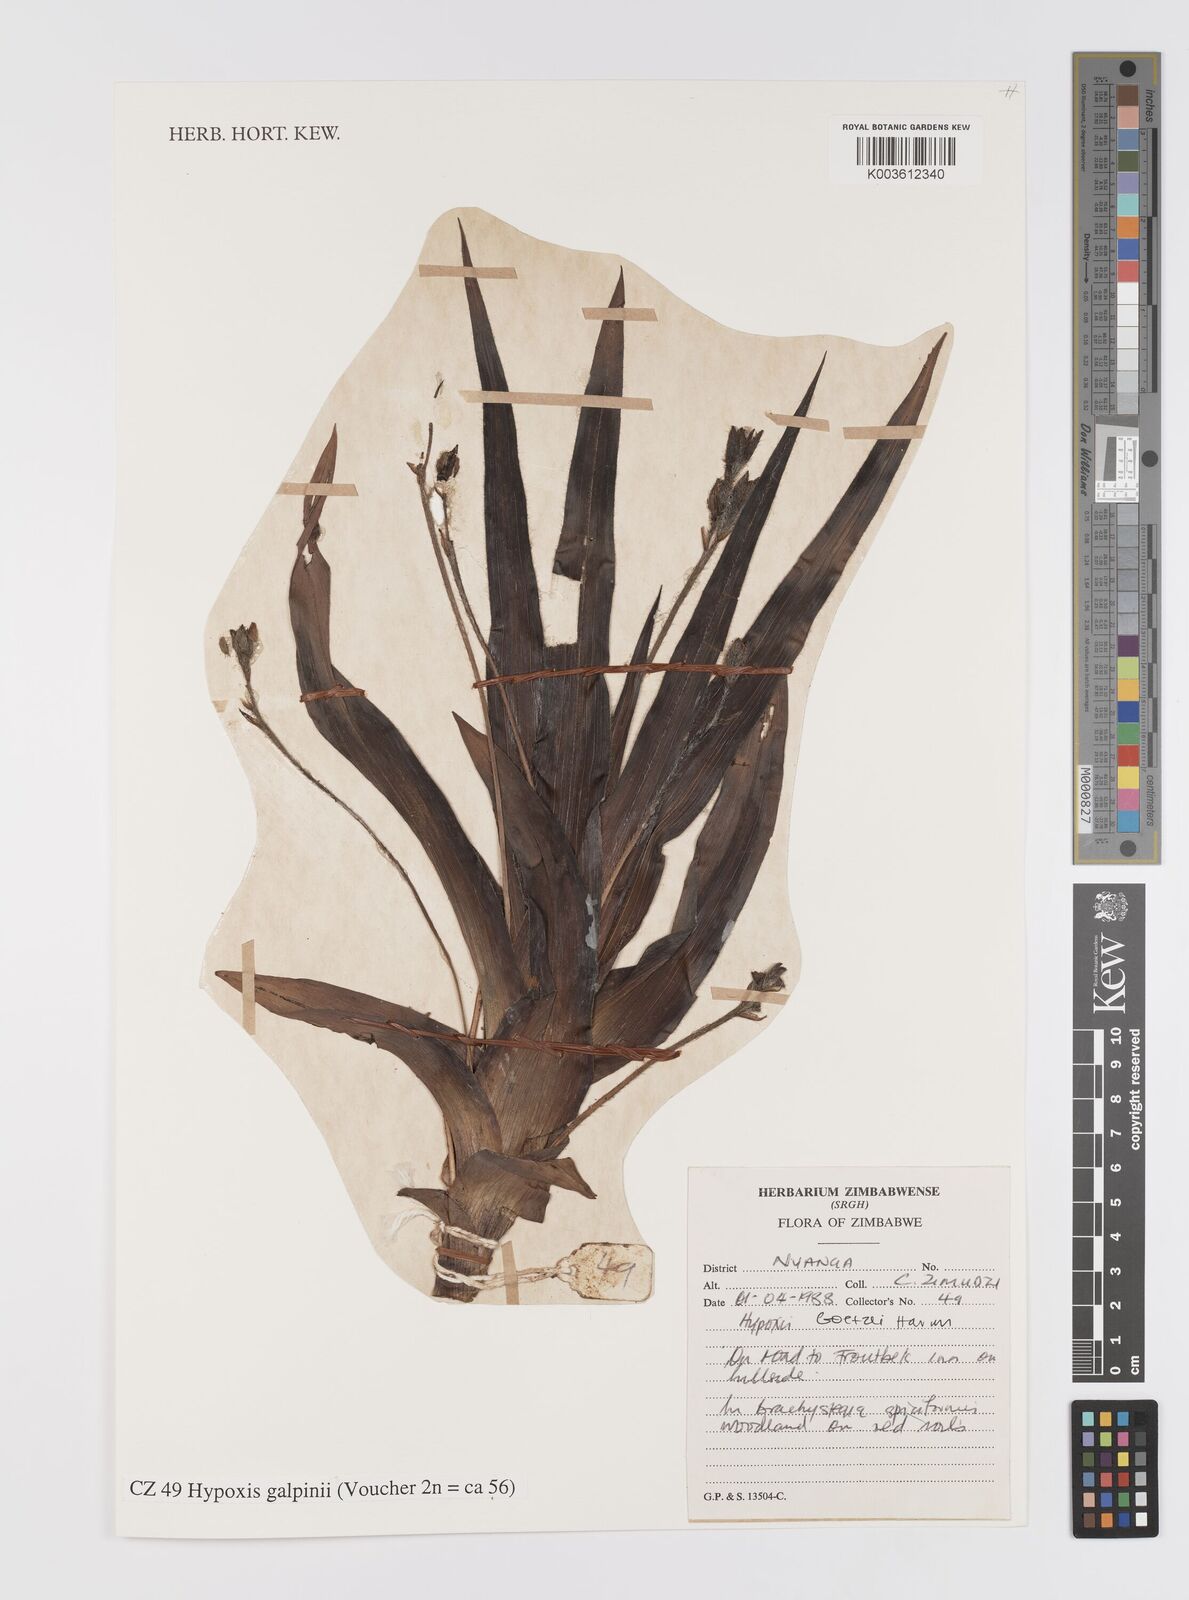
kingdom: Plantae
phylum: Tracheophyta
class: Liliopsida
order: Asparagales
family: Hypoxidaceae
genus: Hypoxis
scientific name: Hypoxis galpinii
